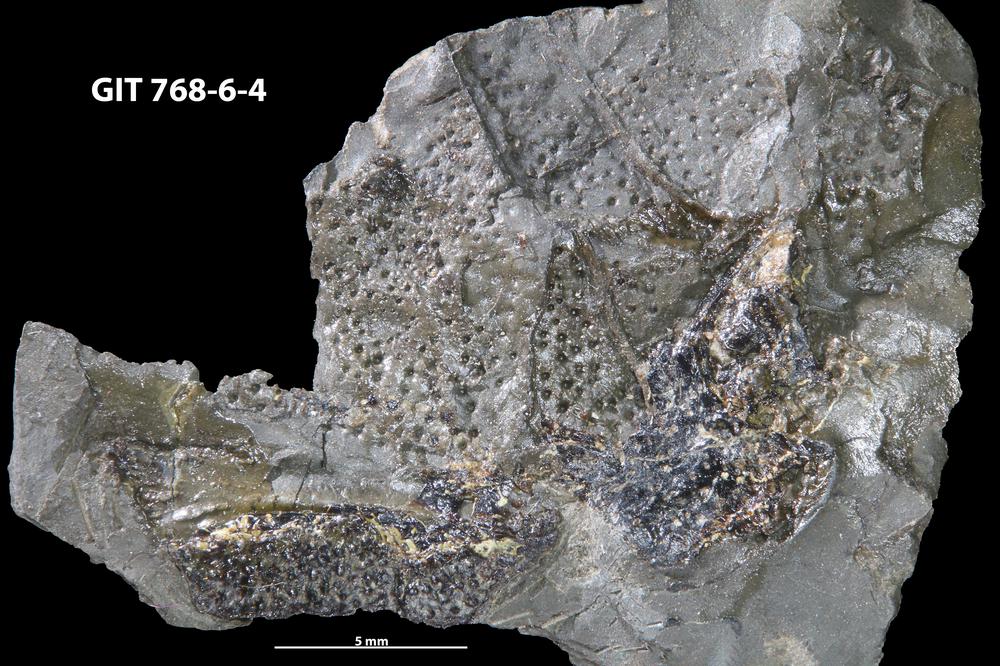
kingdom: Animalia
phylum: Chordata
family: Holonematidae
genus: Groenlandaspis
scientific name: Groenlandaspis
